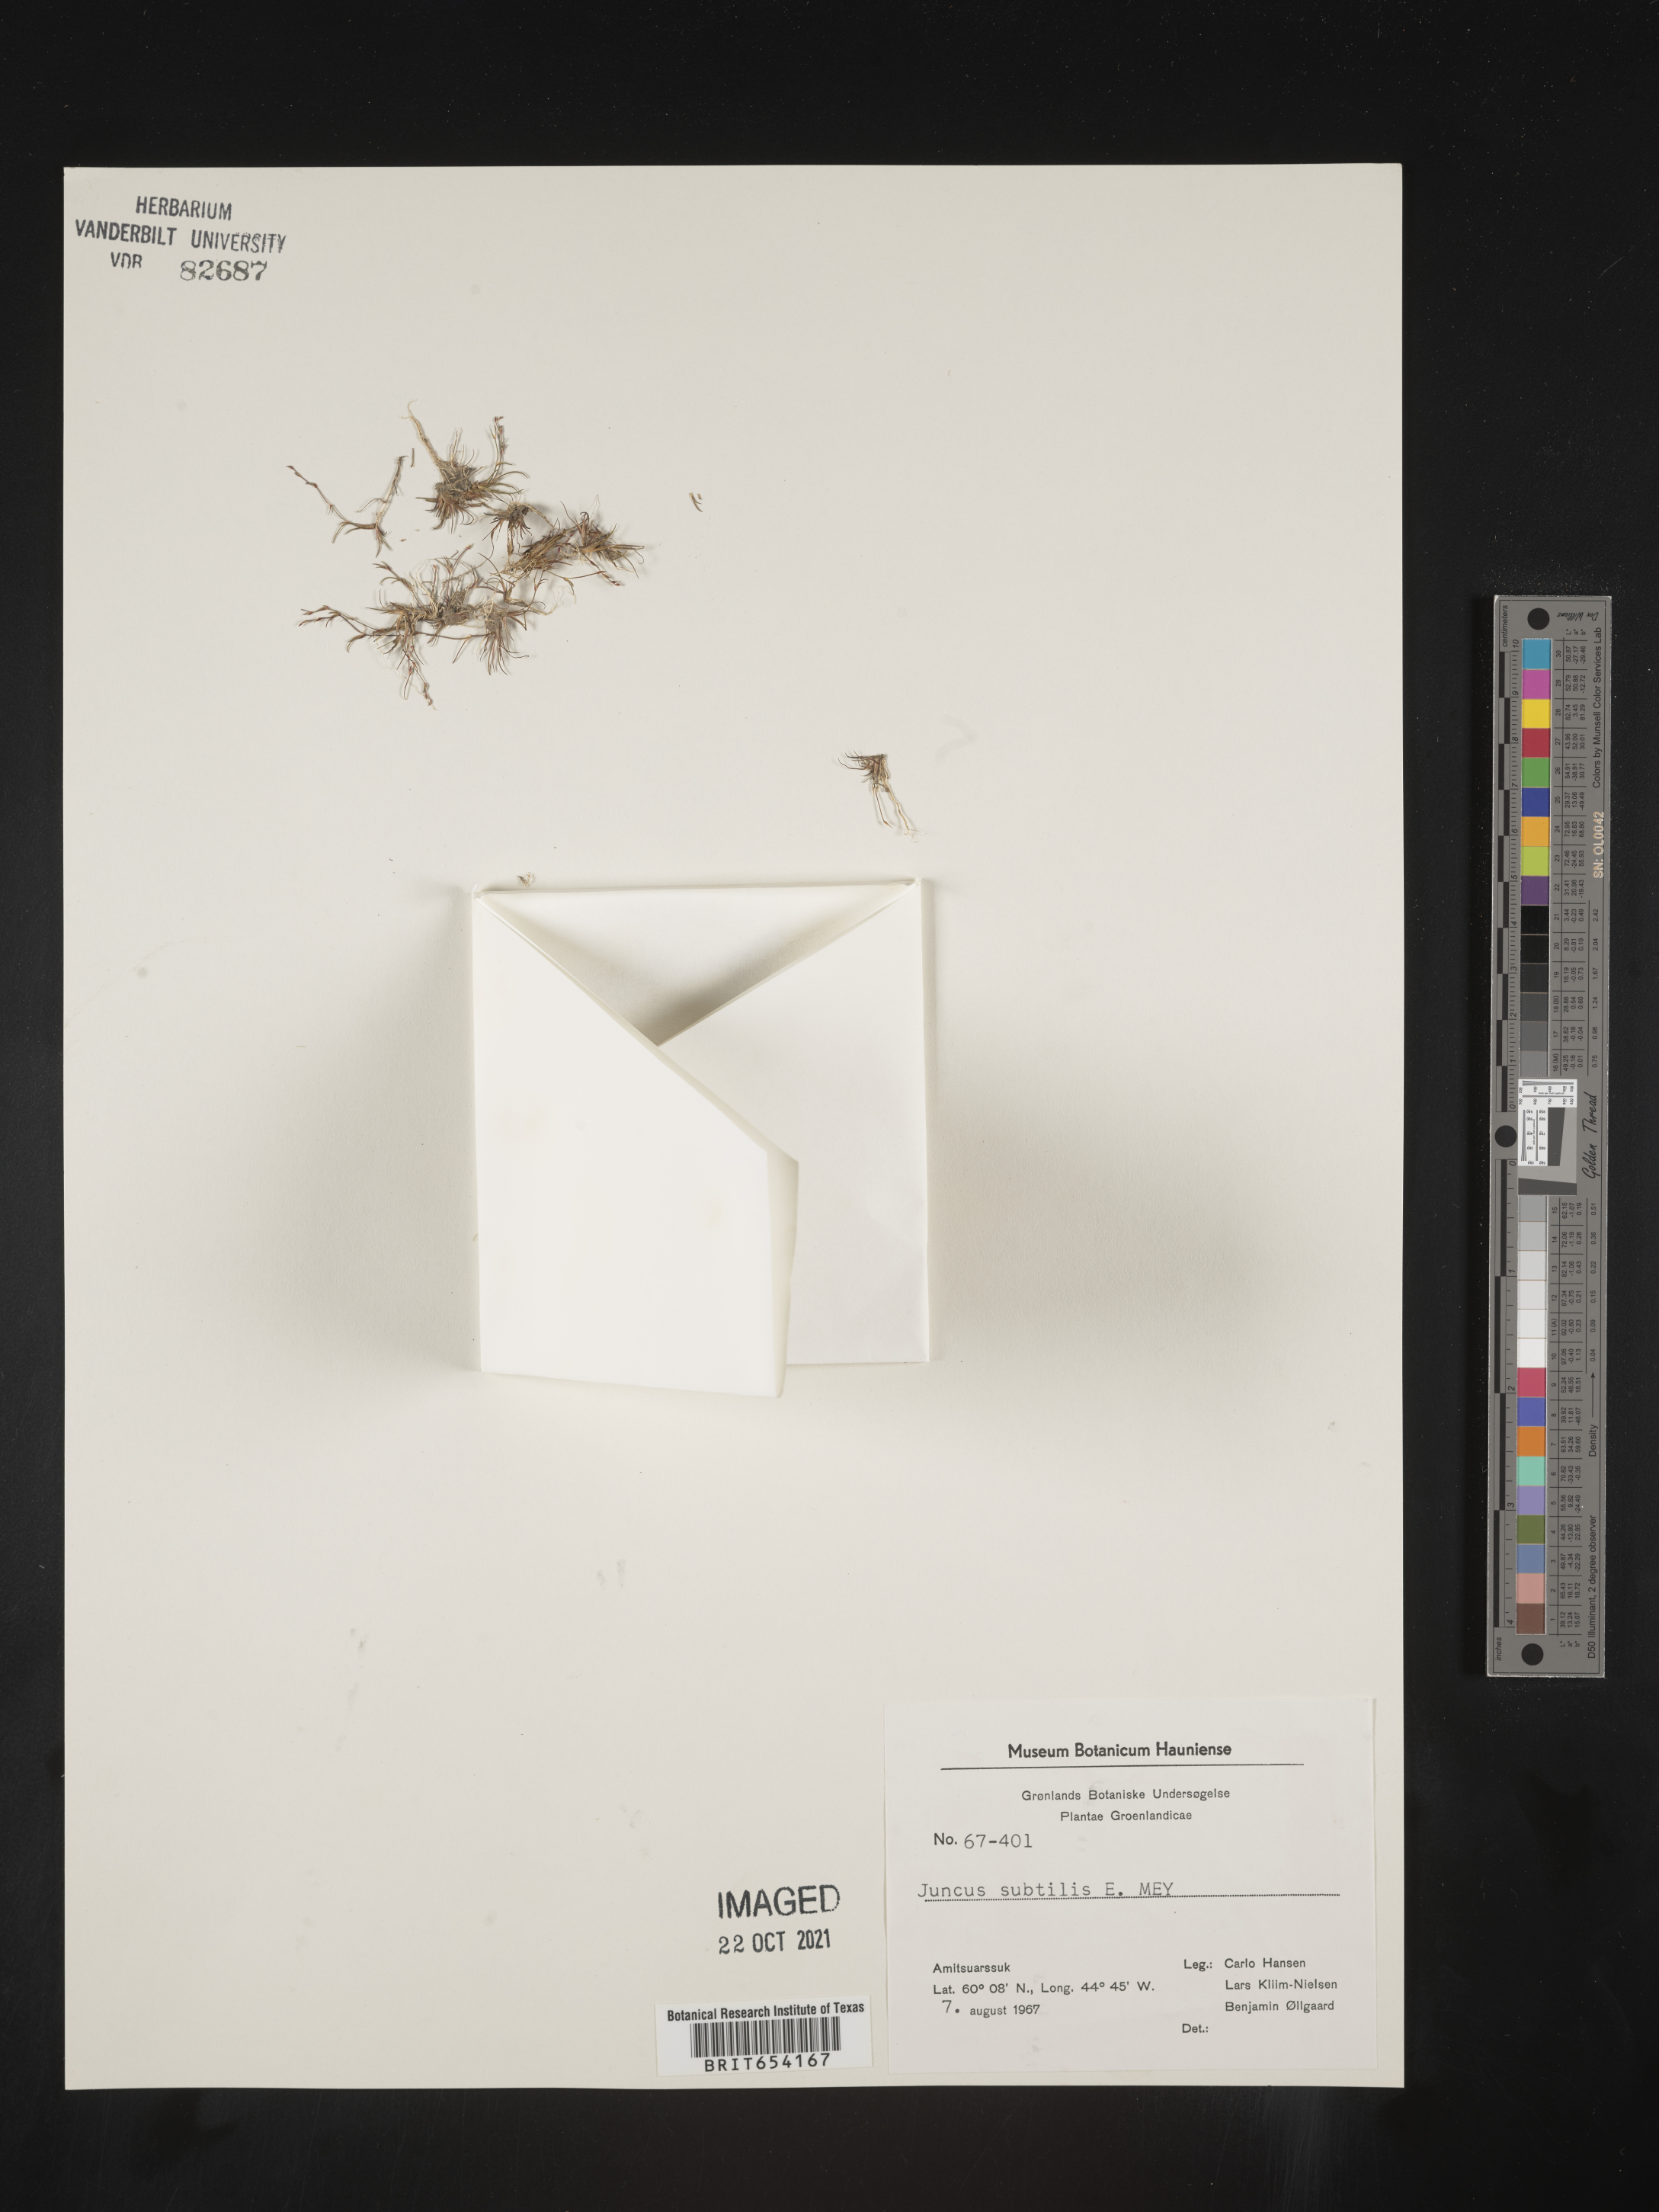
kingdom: Plantae
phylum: Tracheophyta
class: Liliopsida
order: Poales
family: Juncaceae
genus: Juncus
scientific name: Juncus
